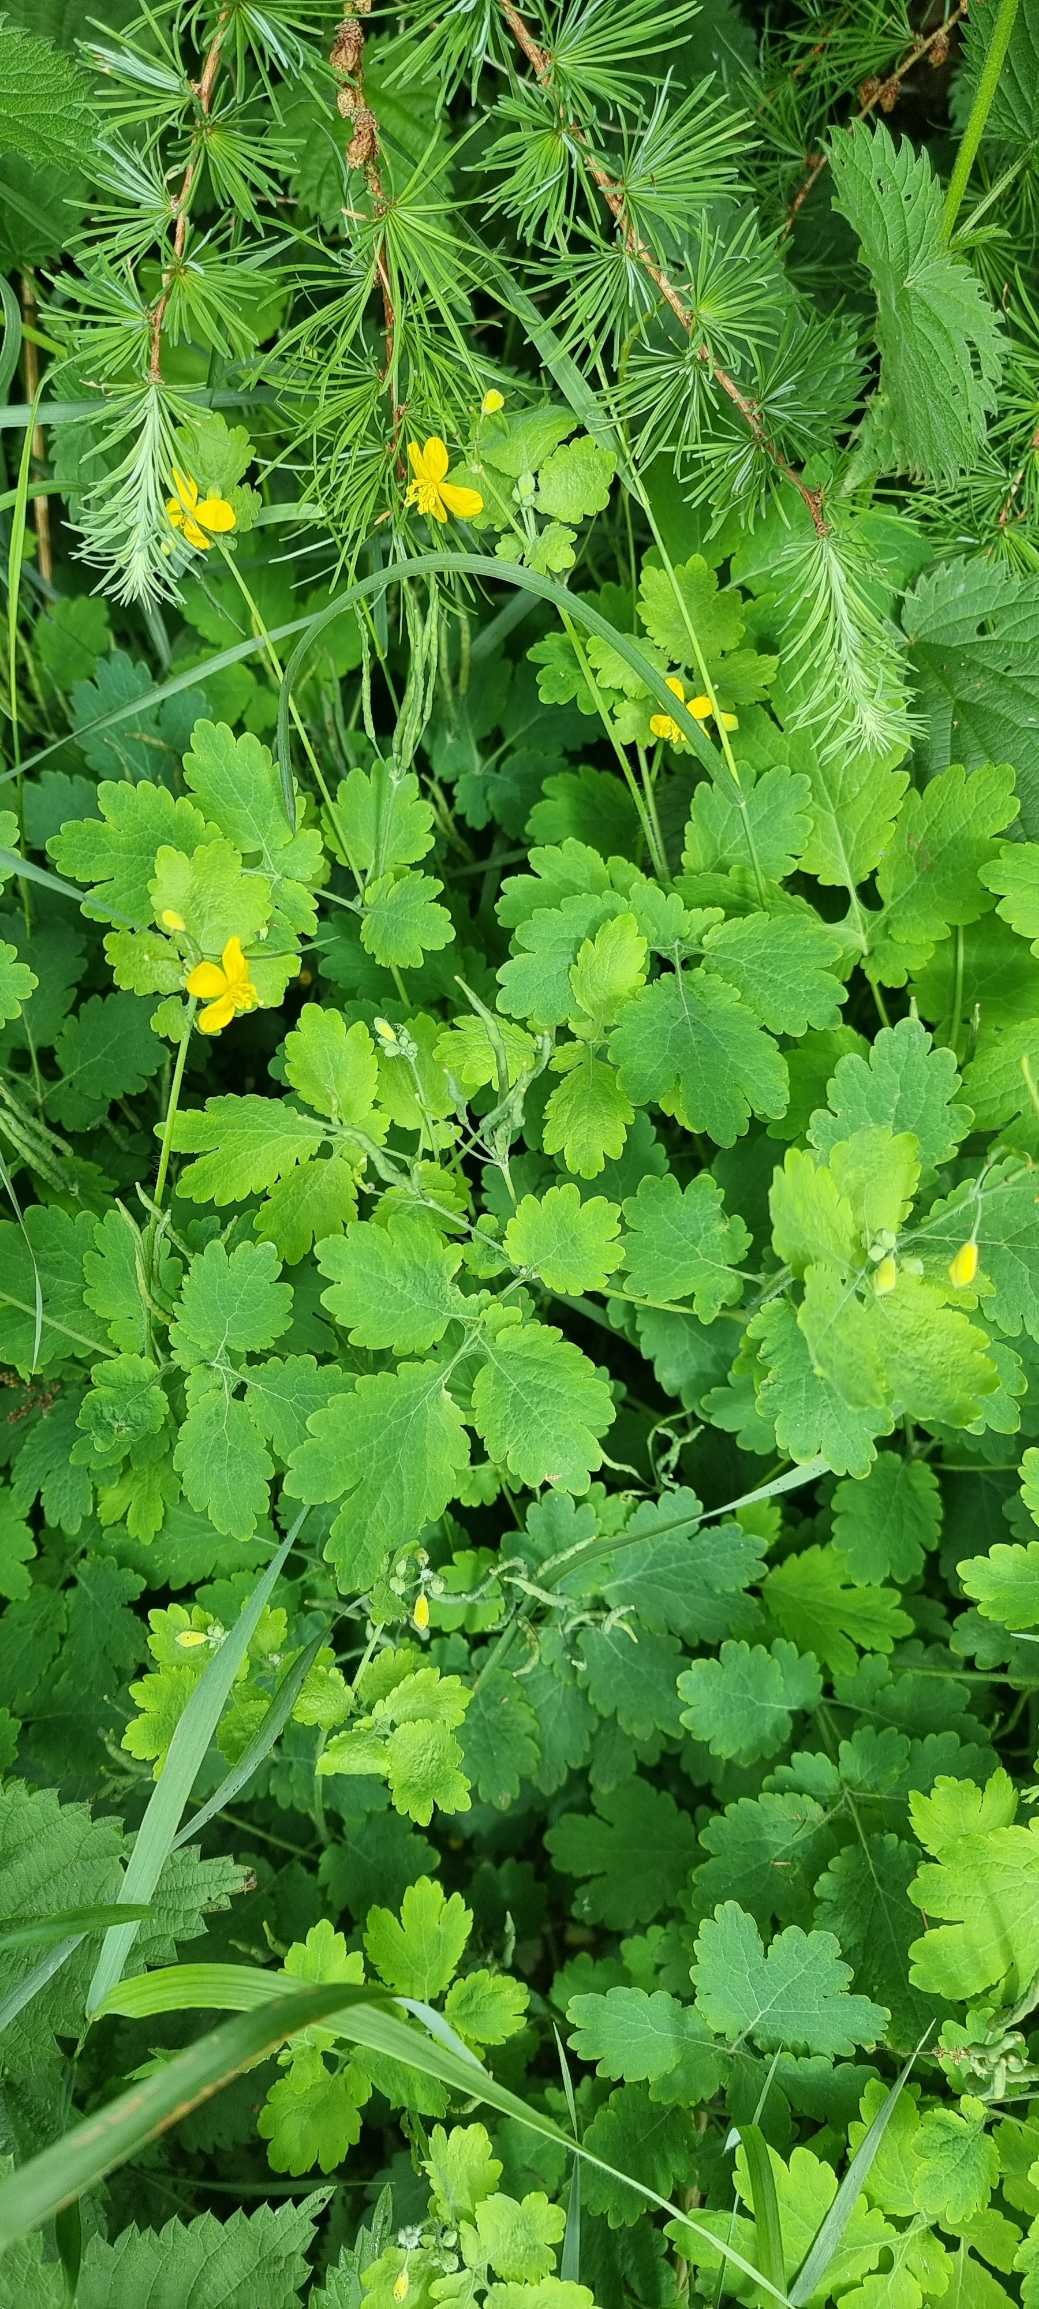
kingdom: Plantae
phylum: Tracheophyta
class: Magnoliopsida
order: Ranunculales
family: Papaveraceae
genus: Chelidonium
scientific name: Chelidonium majus
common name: Svaleurt
